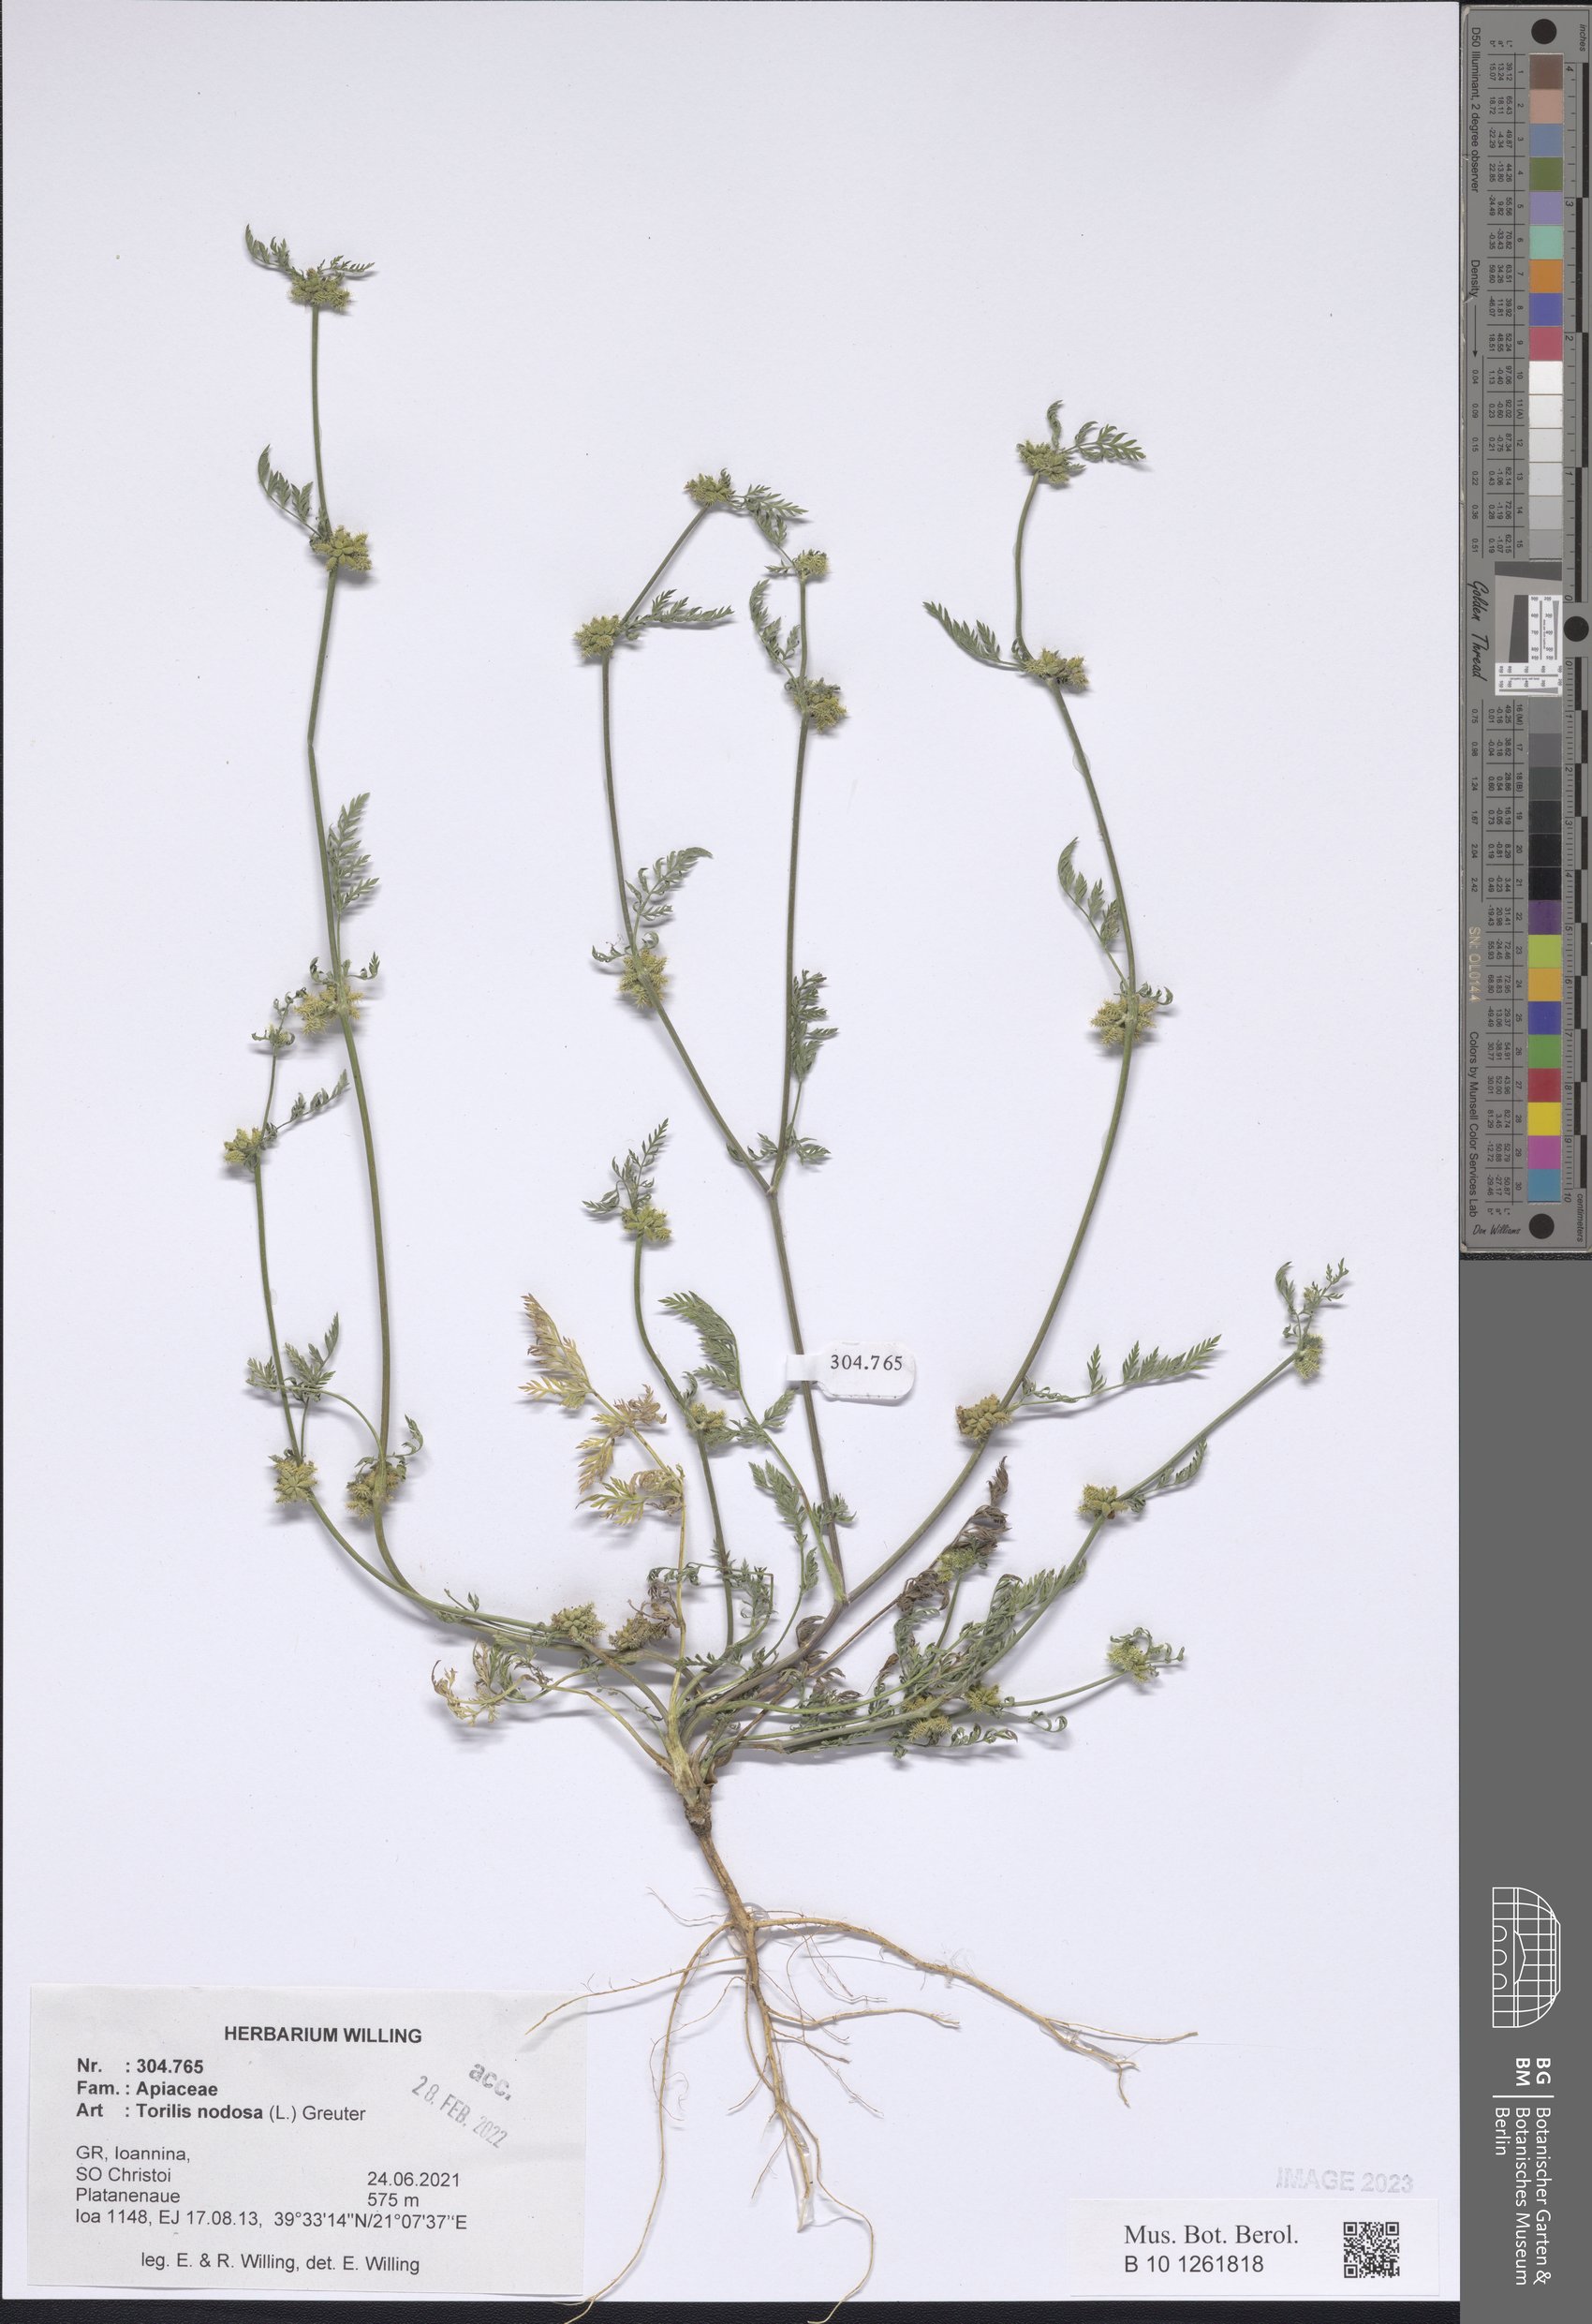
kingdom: Plantae
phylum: Tracheophyta
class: Magnoliopsida
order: Apiales
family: Apiaceae
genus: Torilis
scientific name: Torilis nodosa
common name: Knotted hedge-parsley
